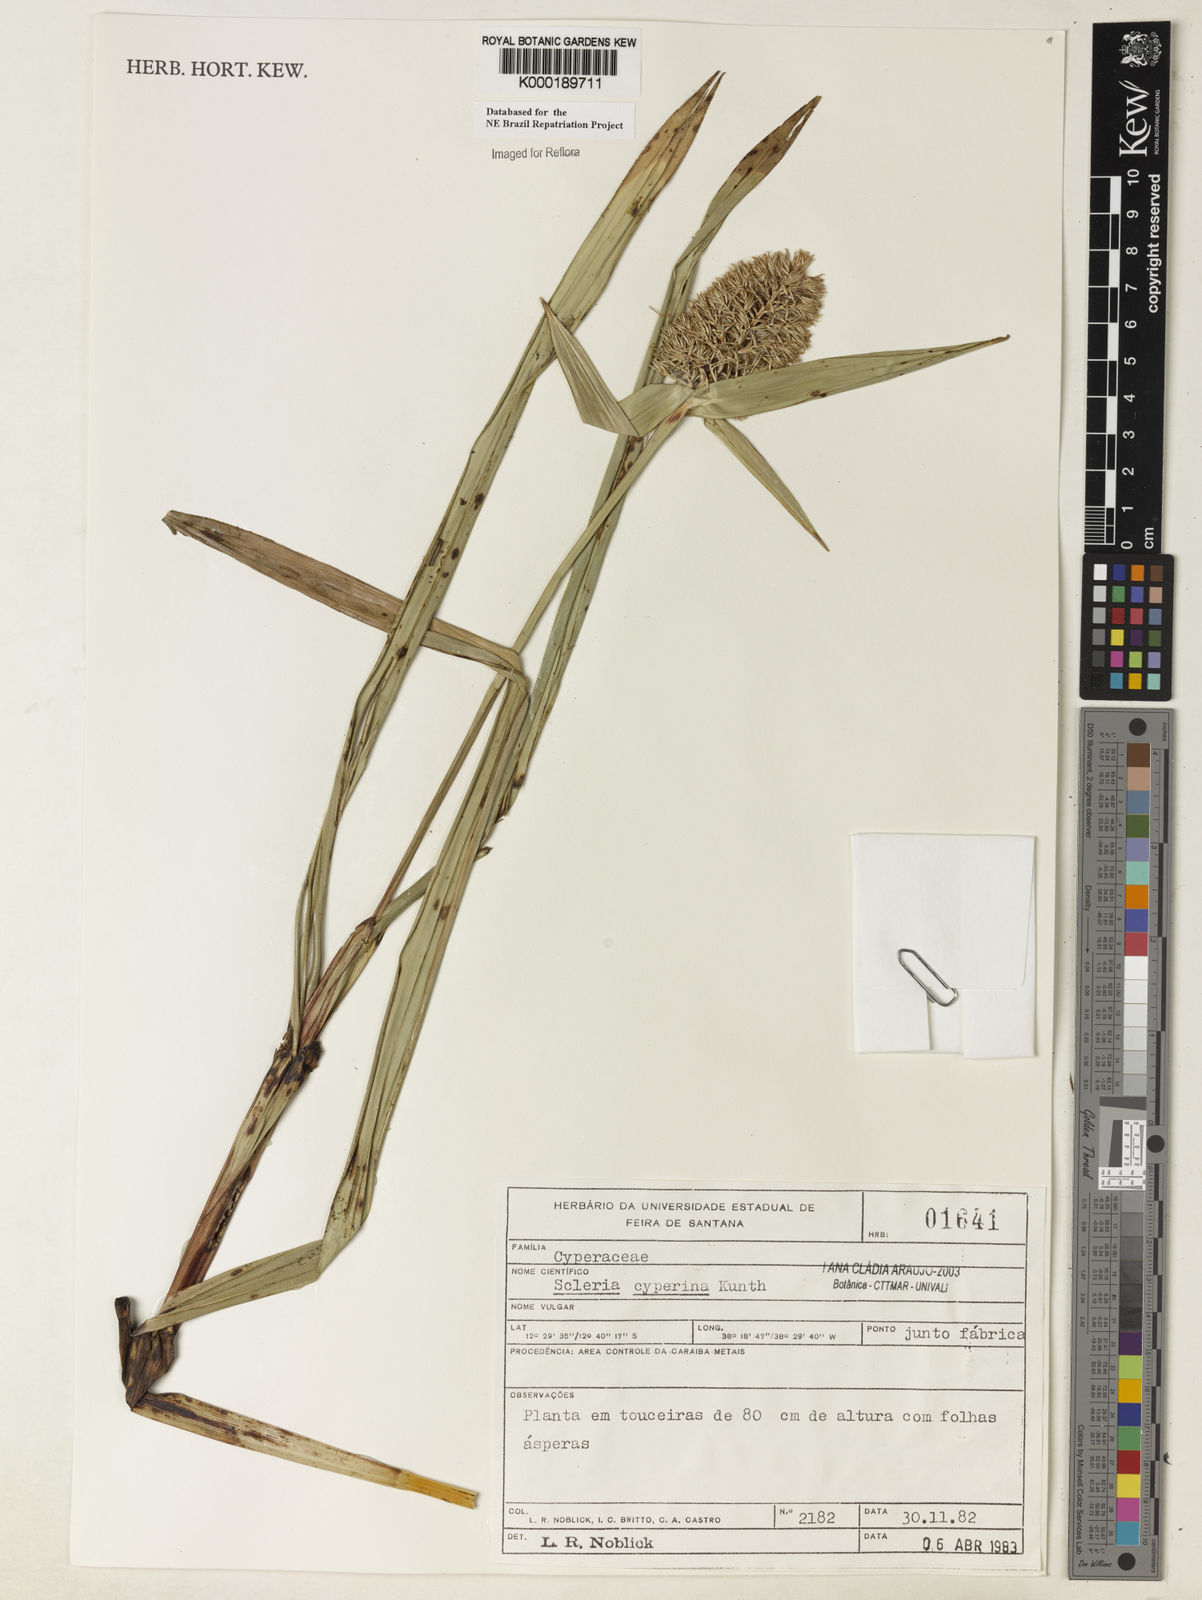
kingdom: Plantae
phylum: Tracheophyta
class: Liliopsida
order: Poales
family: Cyperaceae
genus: Scleria
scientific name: Scleria cyperina
